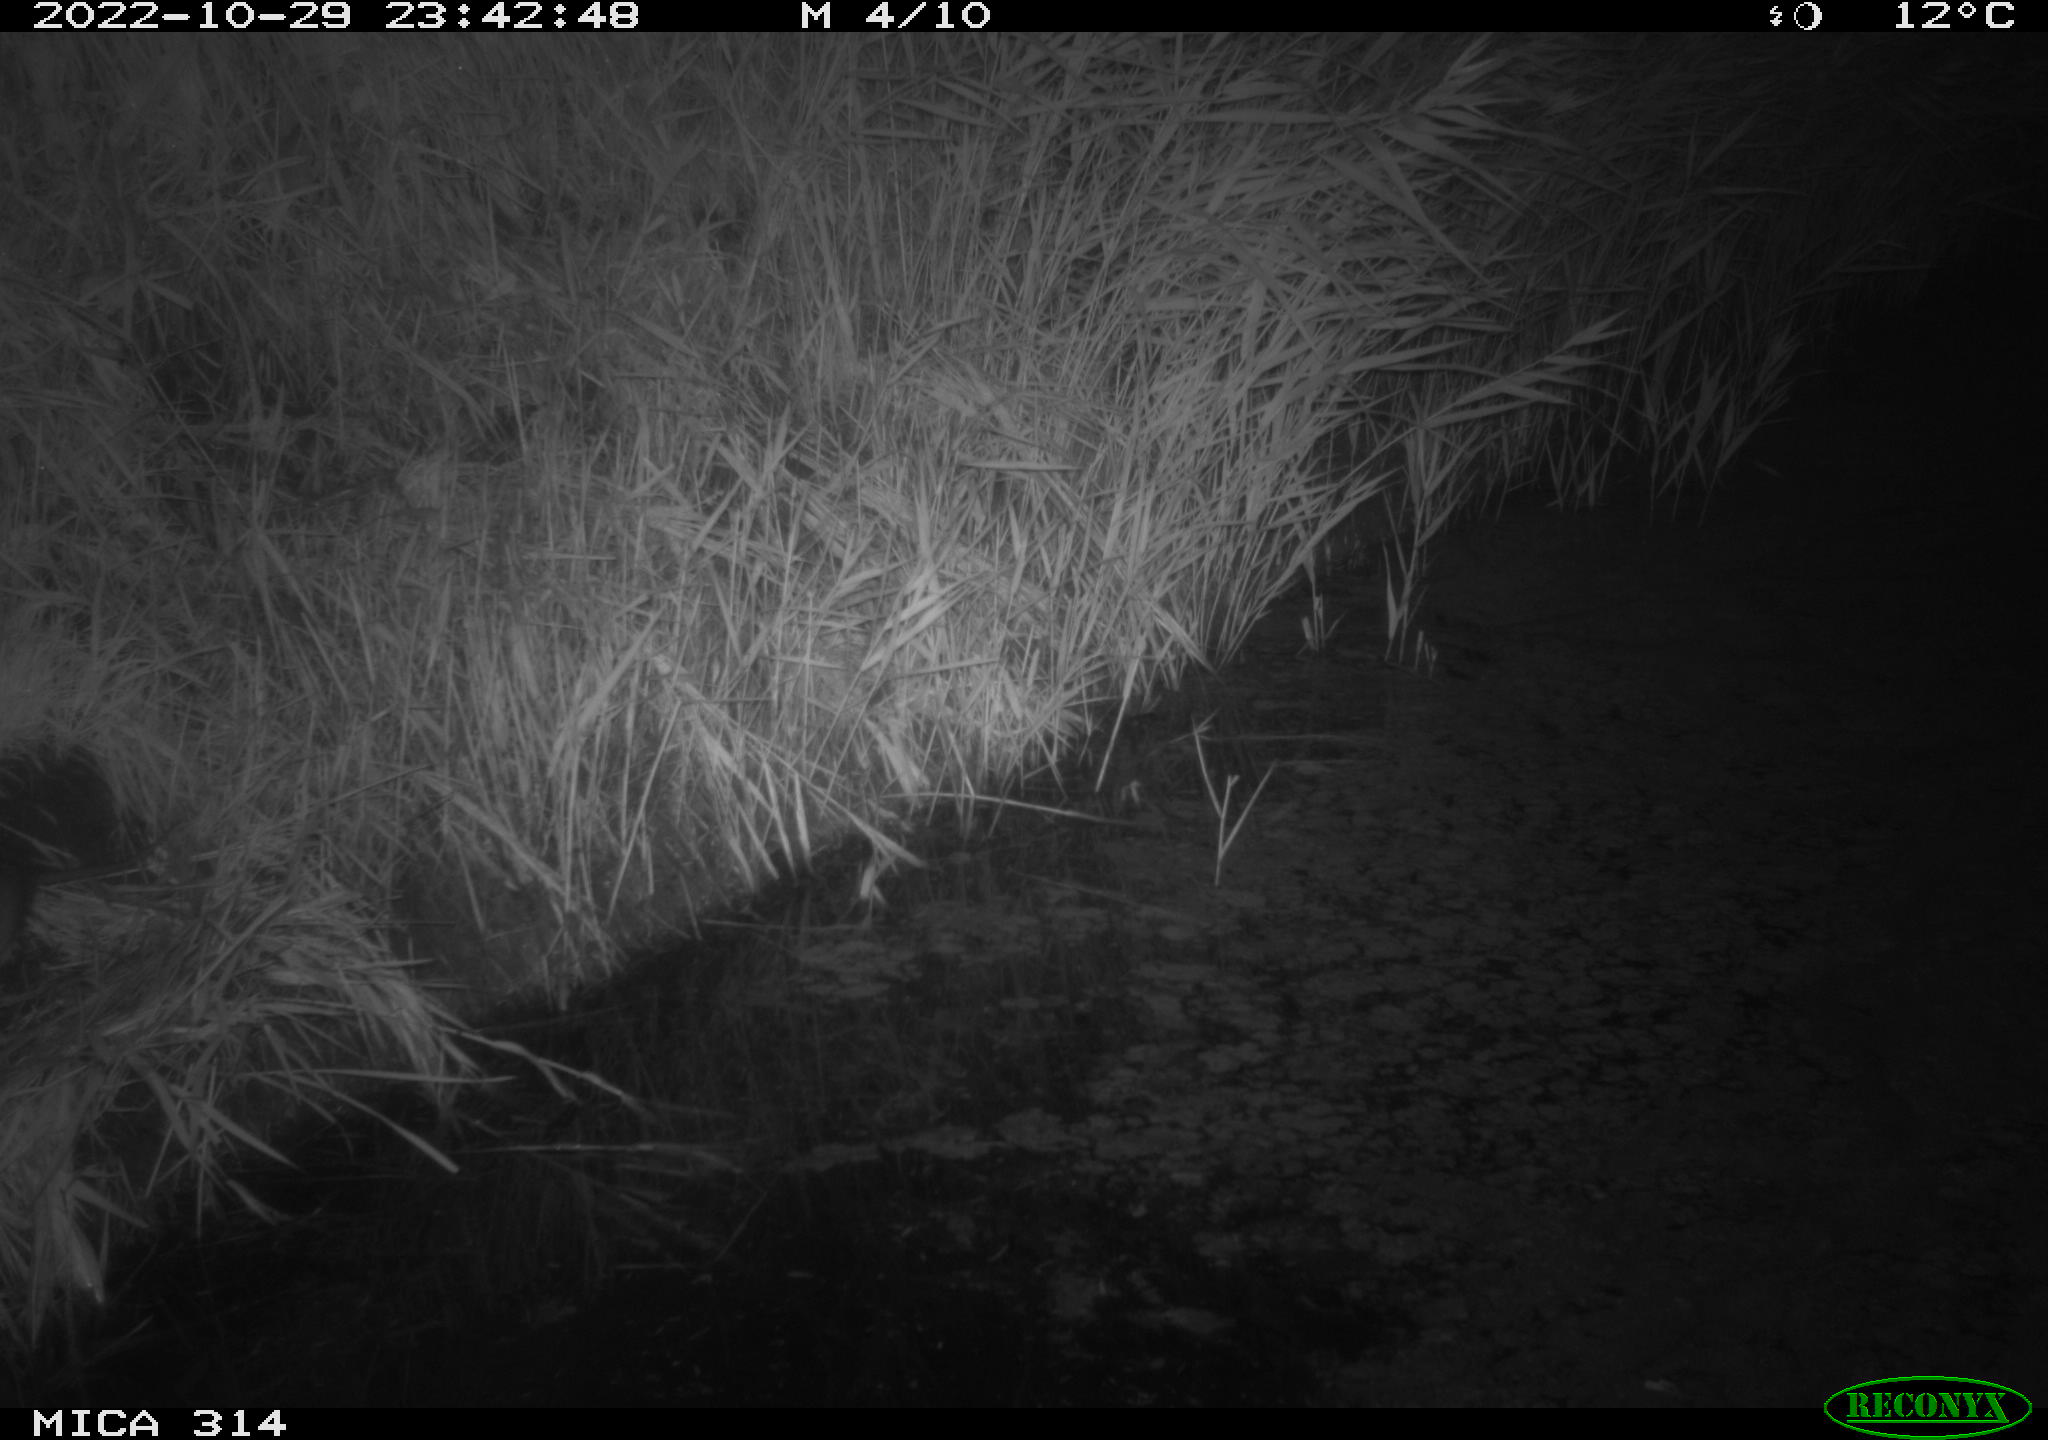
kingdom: Animalia
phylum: Chordata
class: Mammalia
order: Rodentia
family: Cricetidae
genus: Ondatra
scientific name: Ondatra zibethicus
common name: Muskrat
